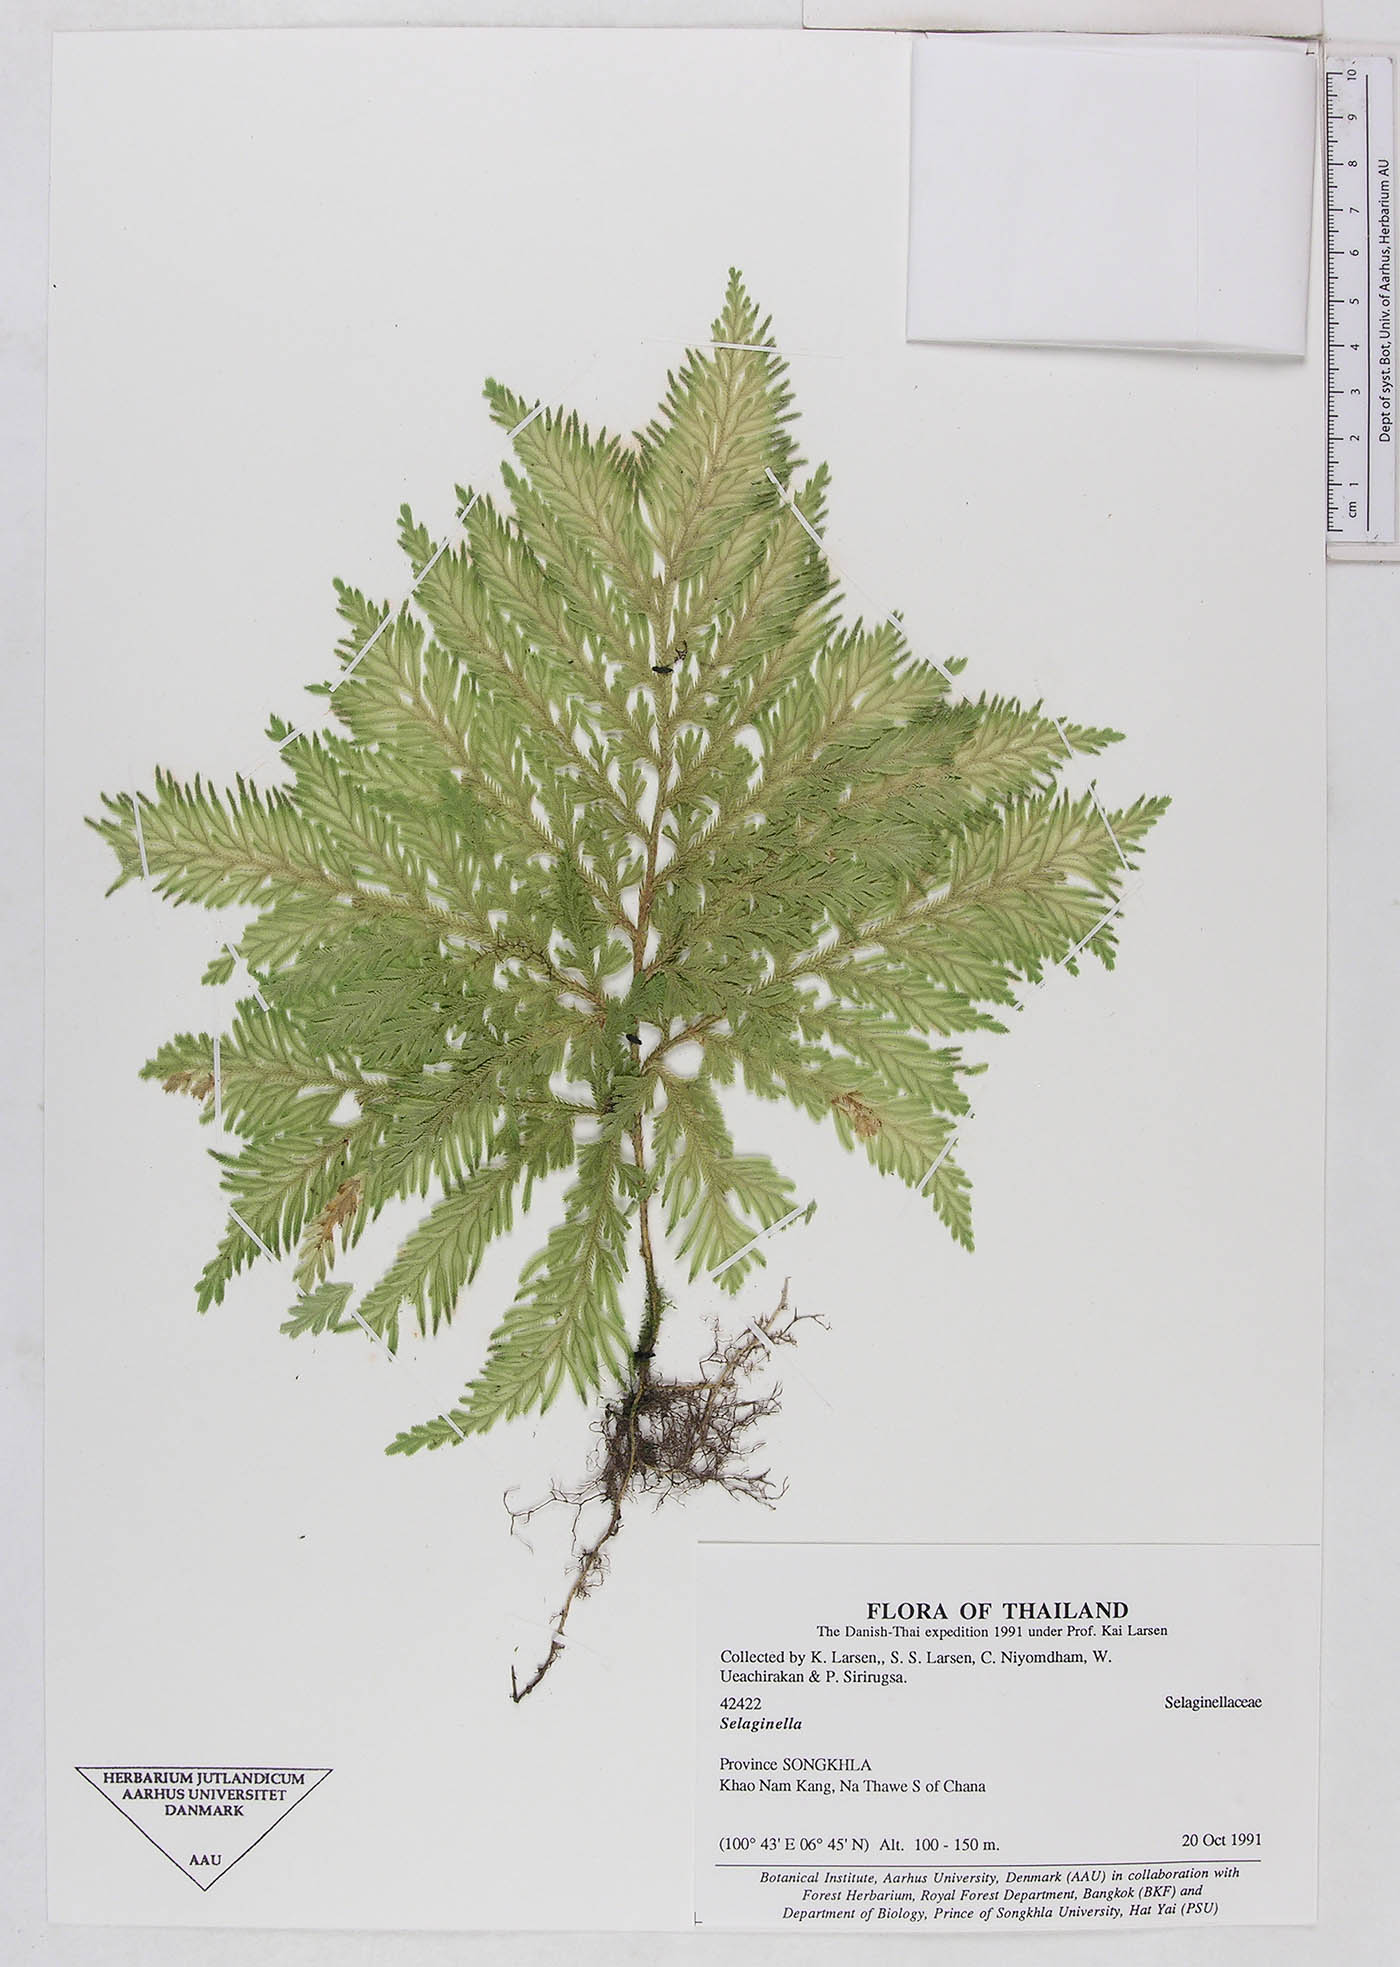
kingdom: Plantae
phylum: Tracheophyta
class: Lycopodiopsida
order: Selaginellales
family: Selaginellaceae
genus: Selaginella
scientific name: Selaginella
